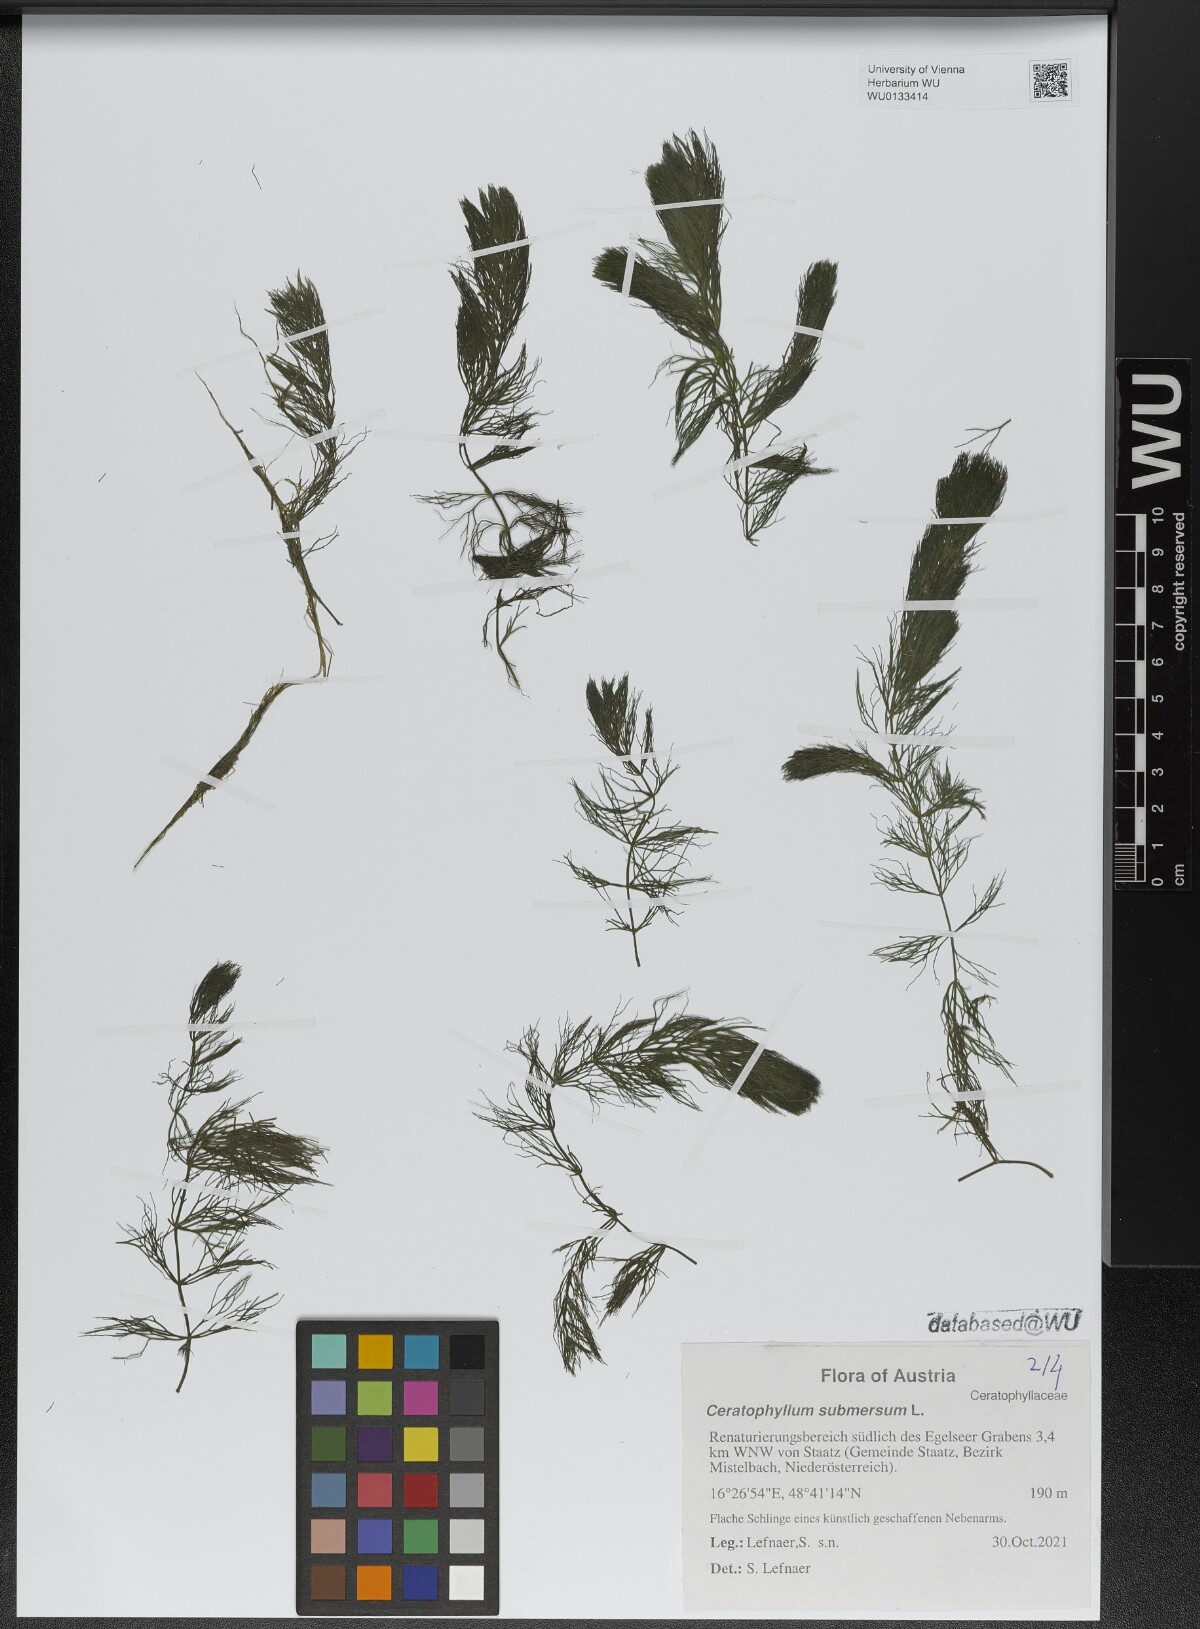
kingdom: Plantae
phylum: Tracheophyta
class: Magnoliopsida
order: Ceratophyllales
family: Ceratophyllaceae
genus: Ceratophyllum
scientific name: Ceratophyllum submersum
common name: Soft hornwort
